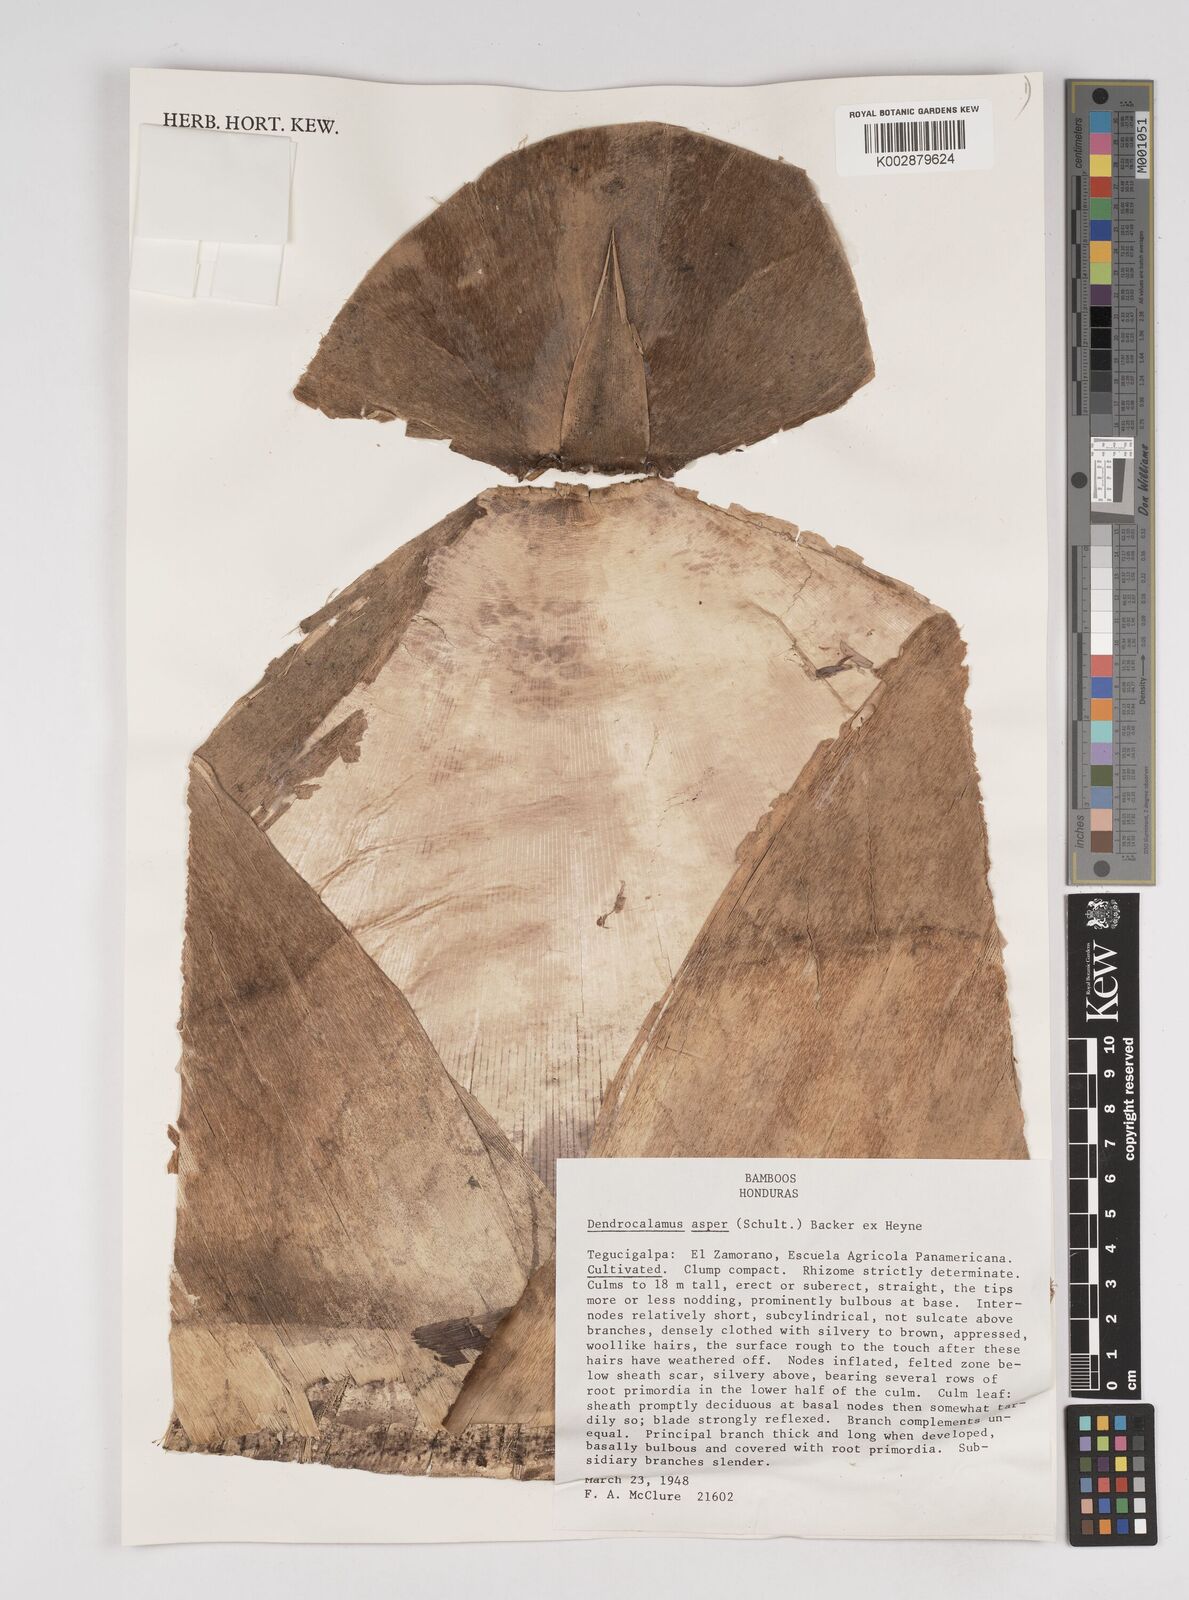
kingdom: Plantae
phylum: Tracheophyta
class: Liliopsida
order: Poales
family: Poaceae
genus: Dendrocalamus
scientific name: Dendrocalamus asper
